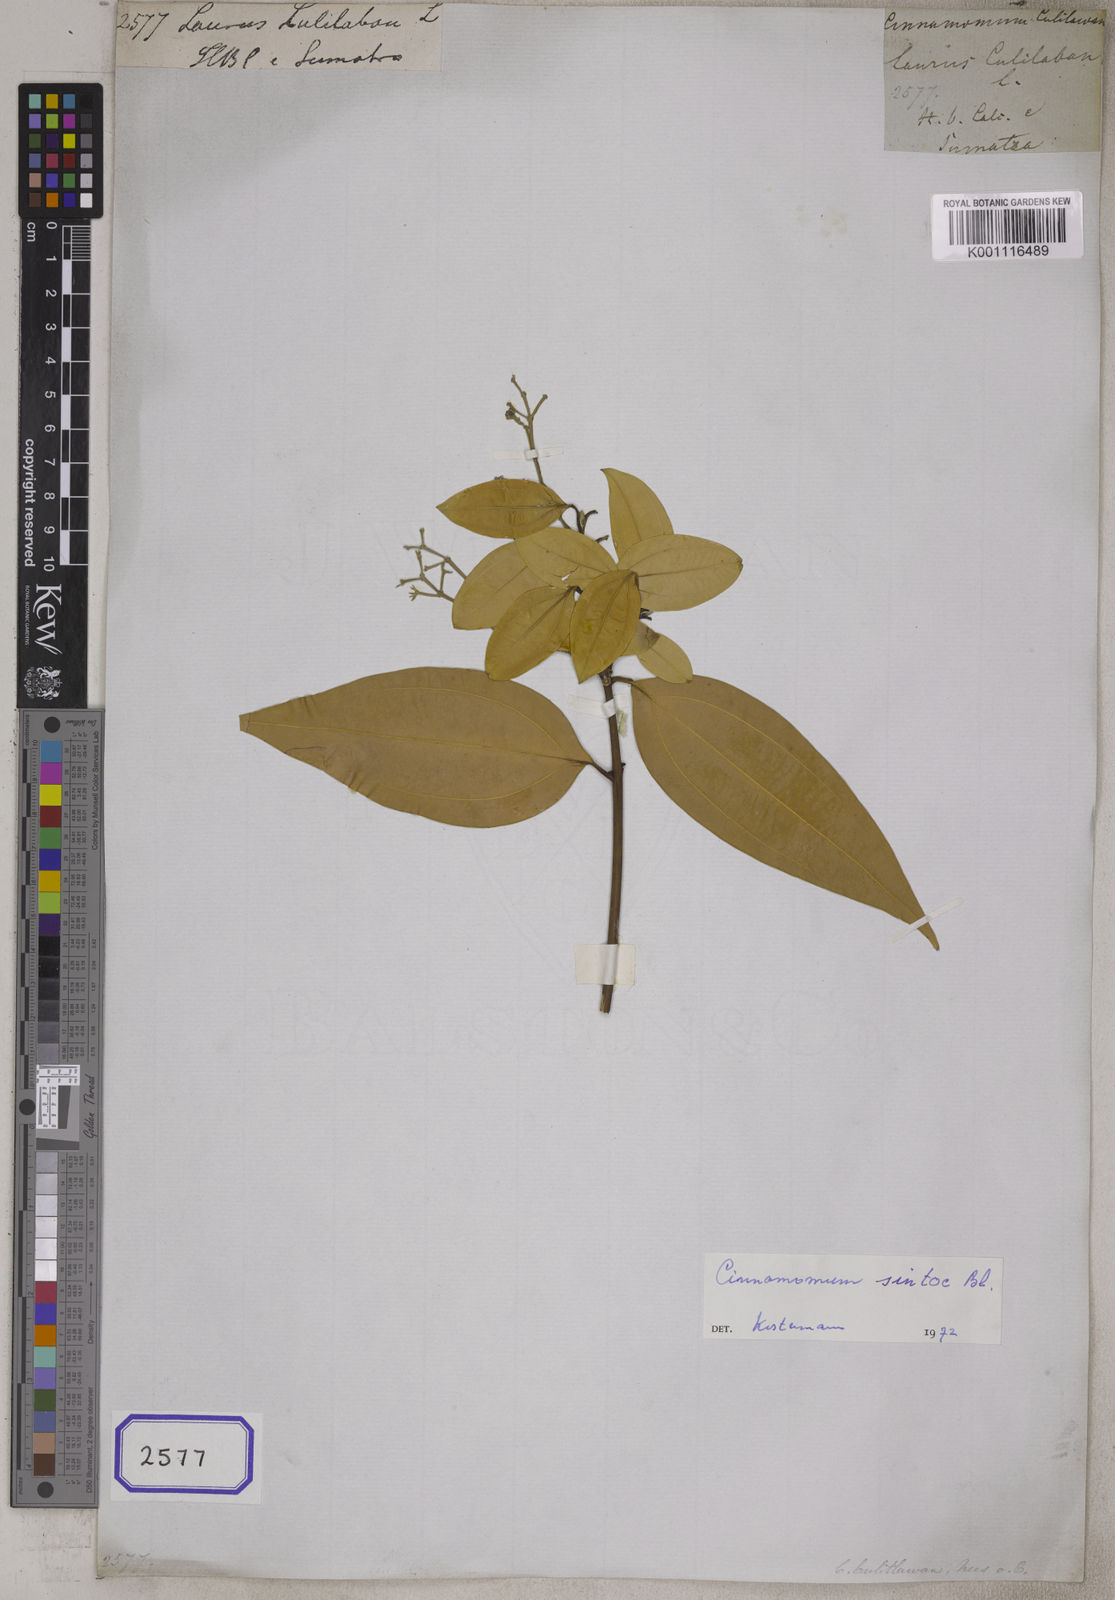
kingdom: Plantae
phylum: Tracheophyta
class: Magnoliopsida
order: Laurales
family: Lauraceae
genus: Cinnamomum
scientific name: Cinnamomum culitlawan
